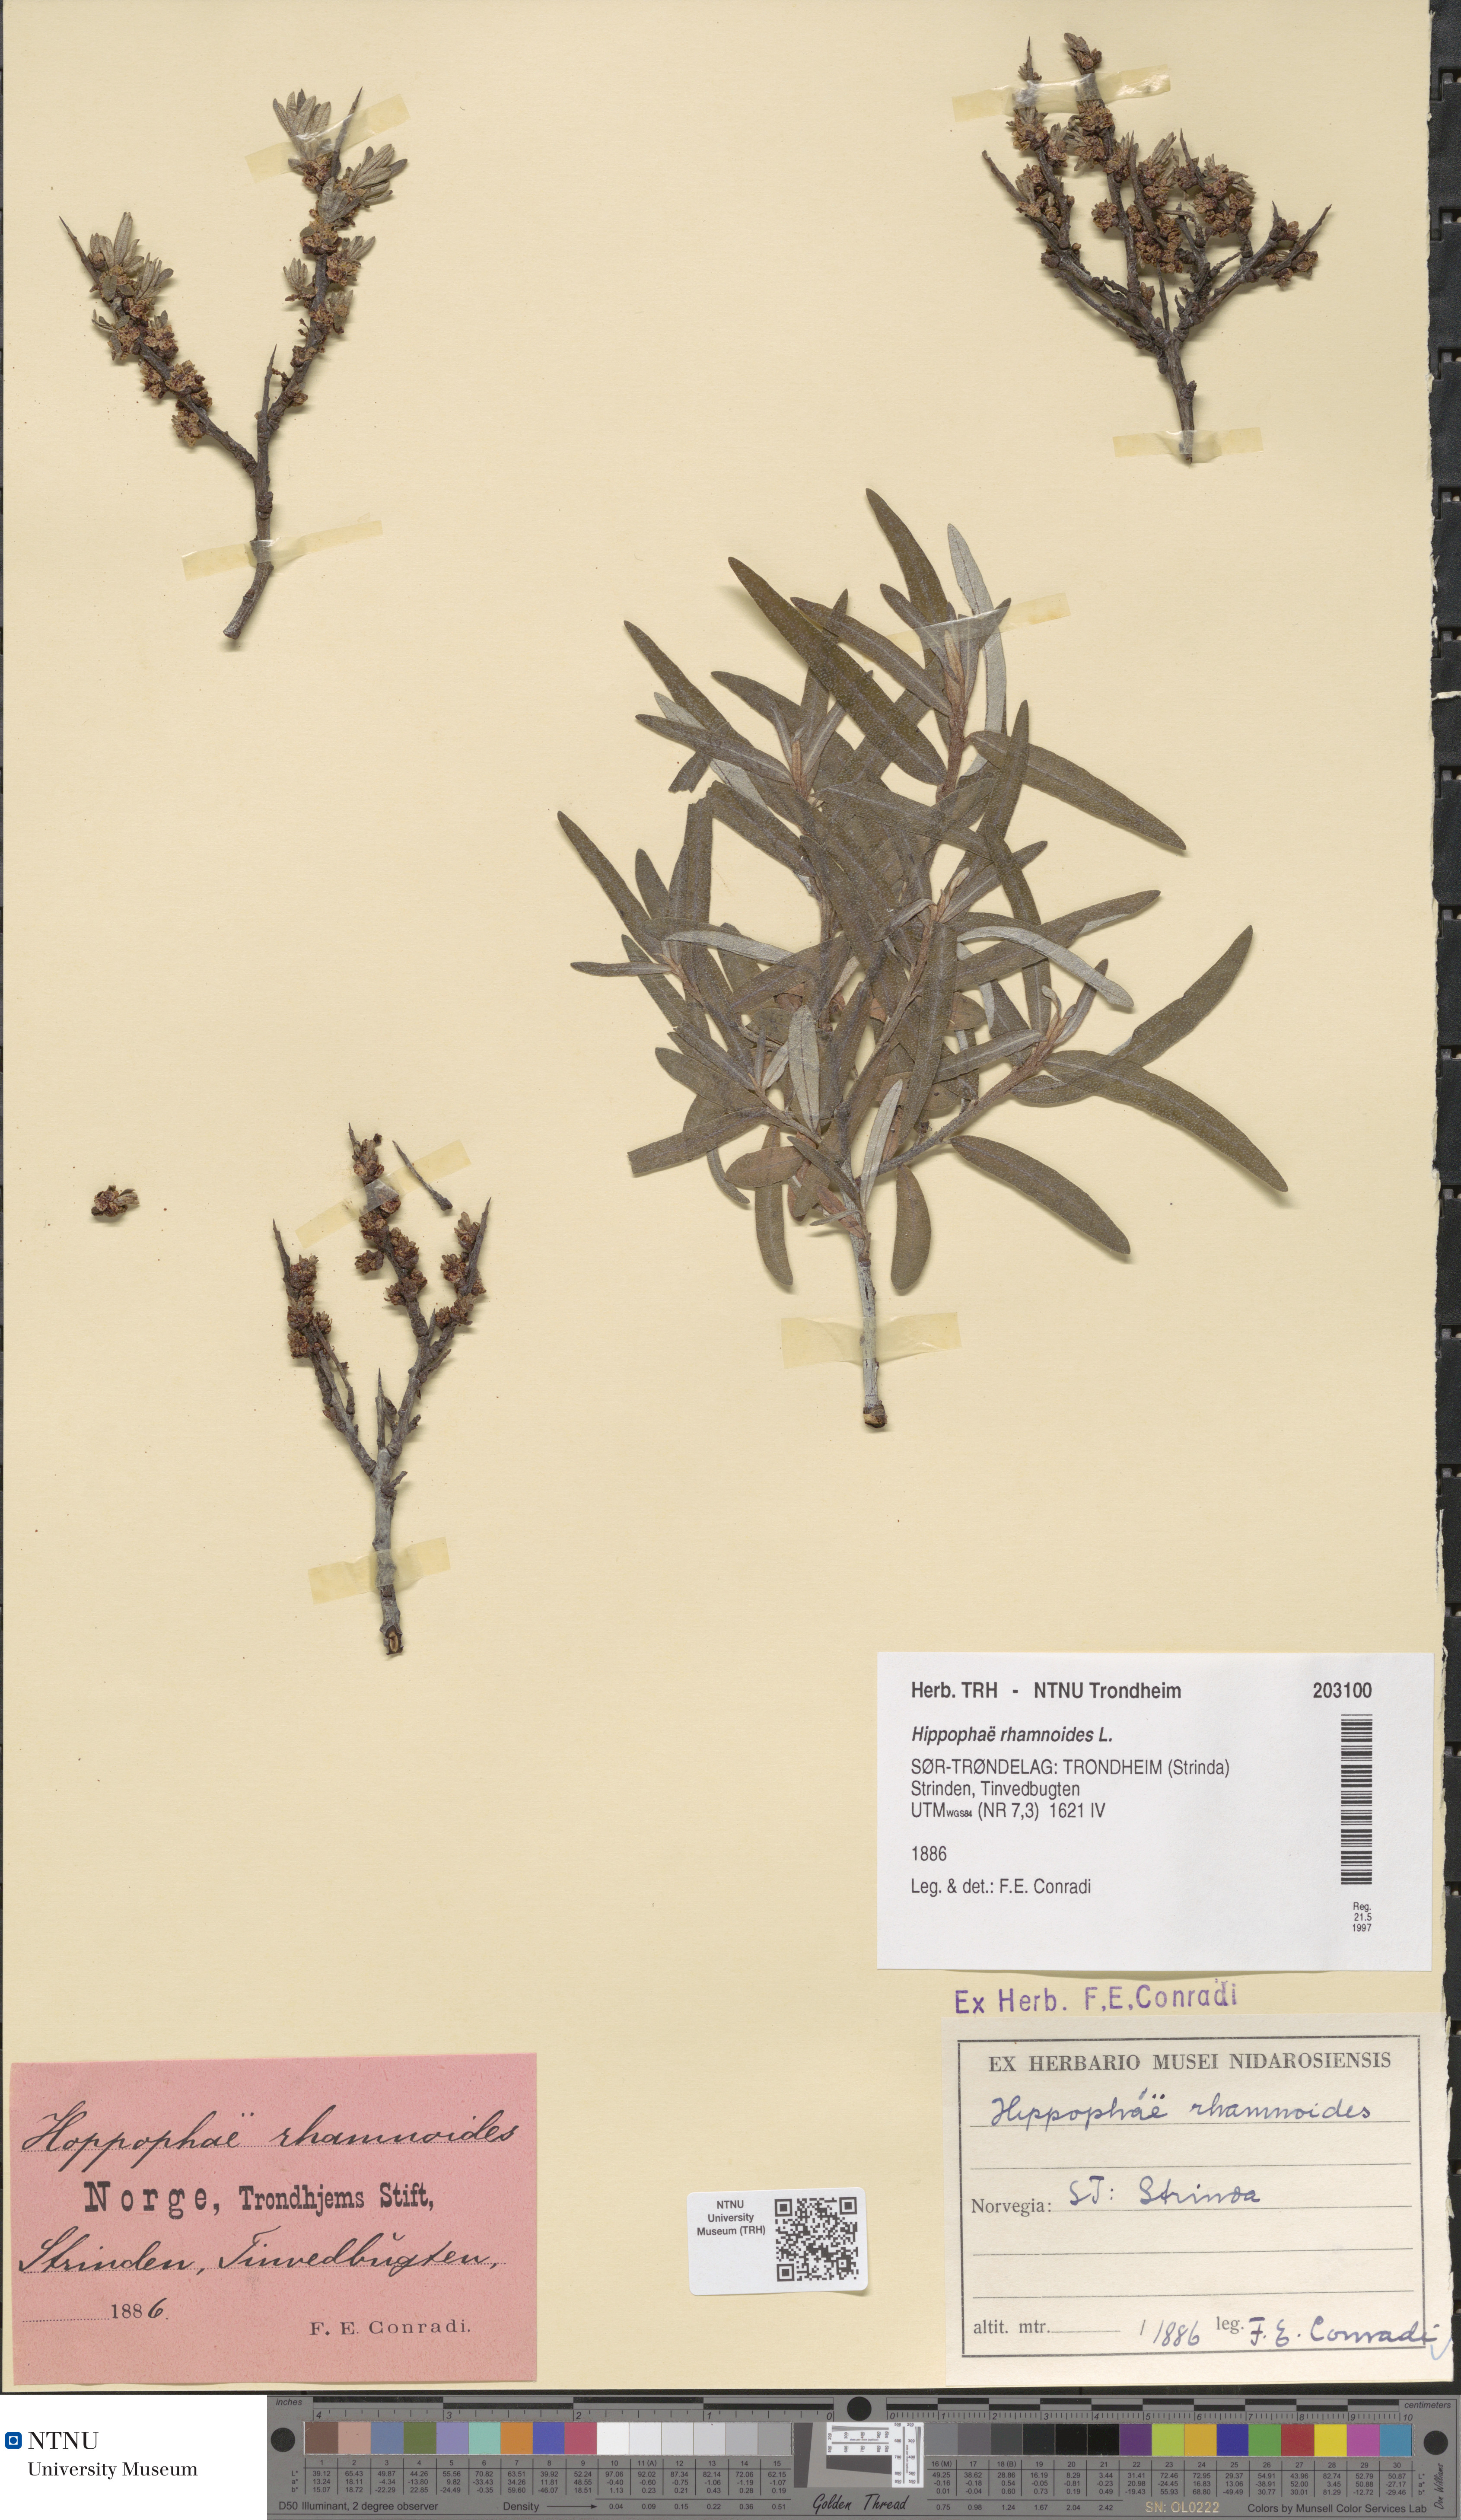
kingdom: Plantae
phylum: Tracheophyta
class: Magnoliopsida
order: Rosales
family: Elaeagnaceae
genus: Hippophae
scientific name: Hippophae rhamnoides
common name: Sea-buckthorn
